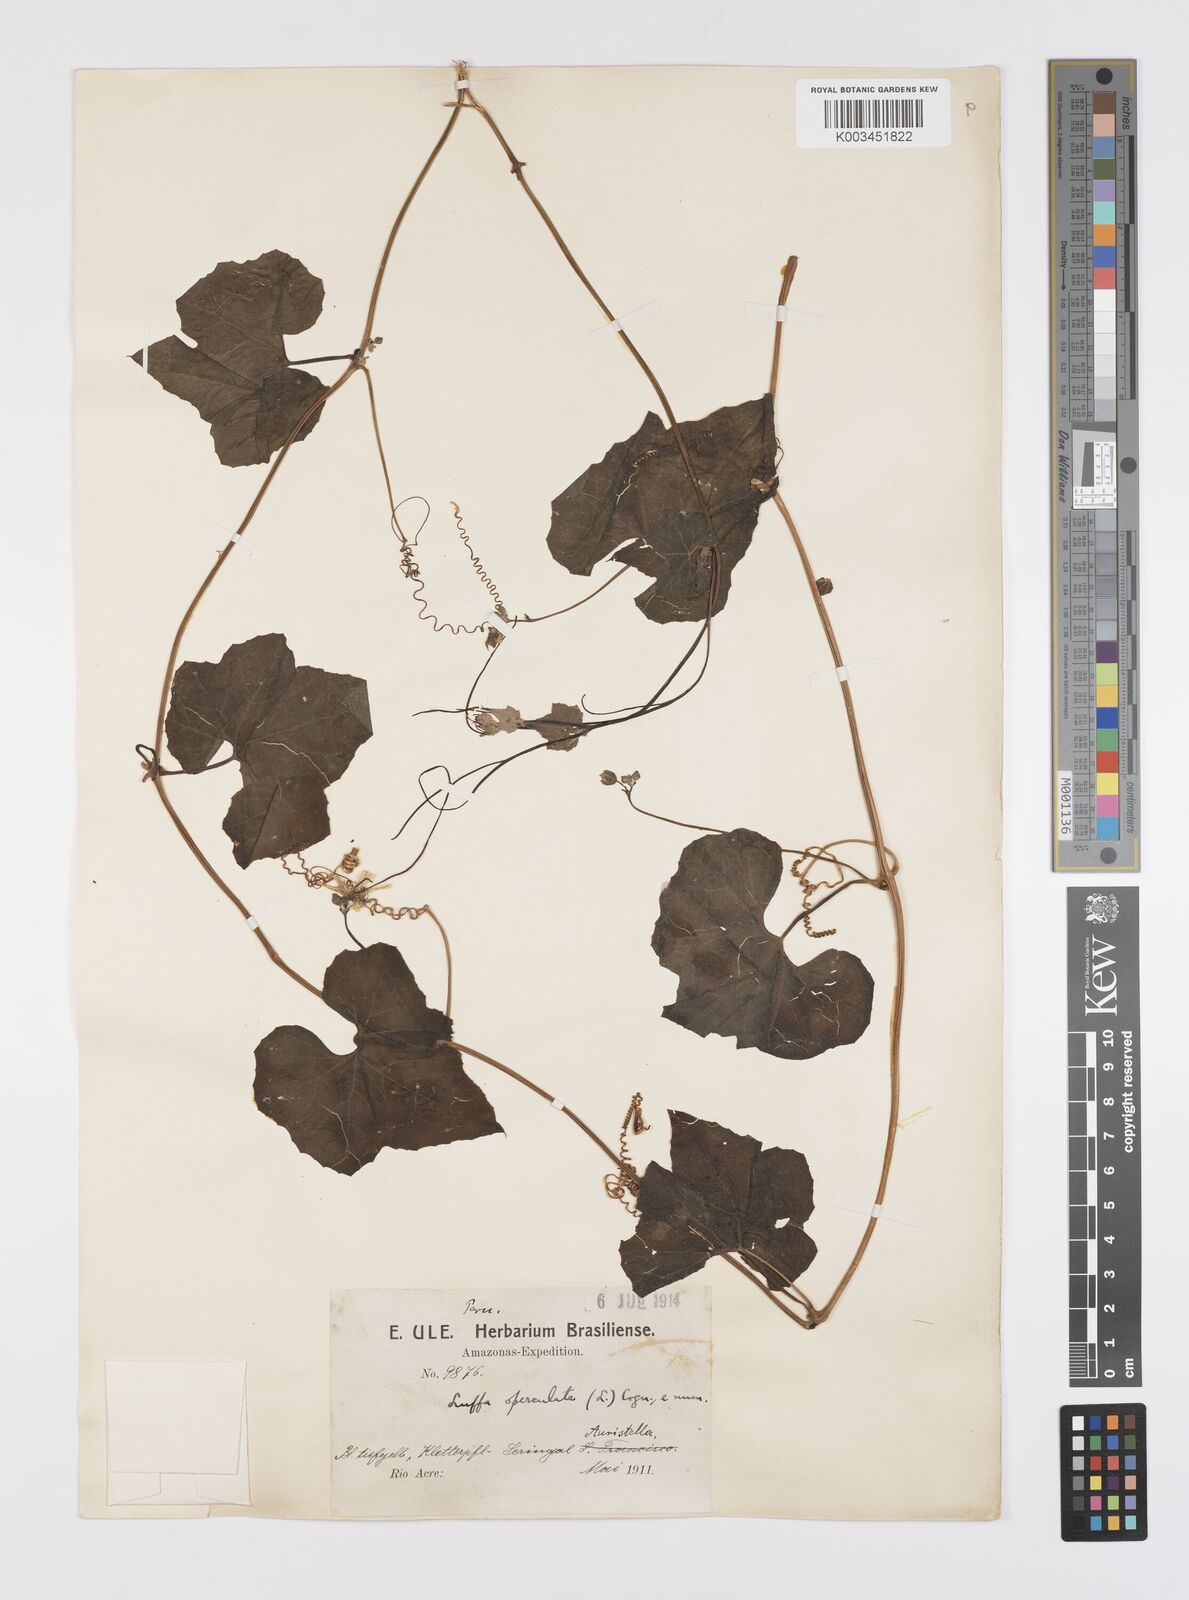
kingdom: Plantae
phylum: Tracheophyta
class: Magnoliopsida
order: Cucurbitales
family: Cucurbitaceae
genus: Luffa
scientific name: Luffa operculata
